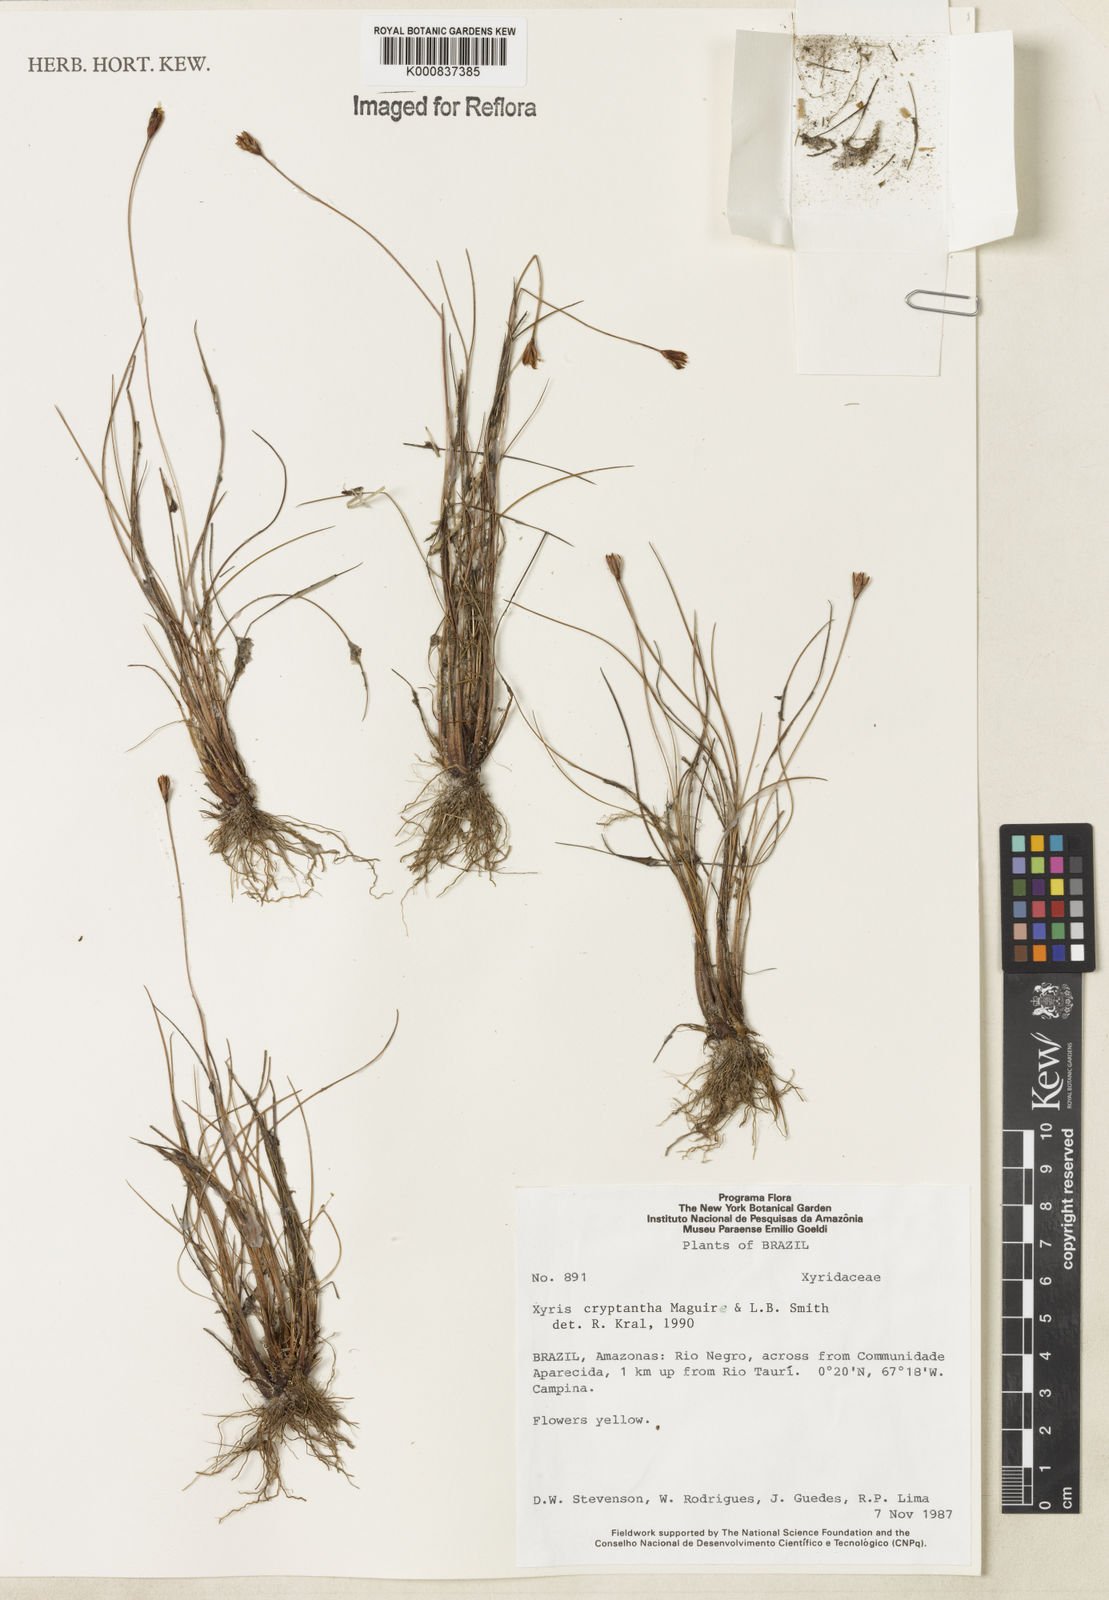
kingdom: Plantae
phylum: Tracheophyta
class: Liliopsida
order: Poales
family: Xyridaceae
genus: Xyris
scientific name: Xyris cryptantha
